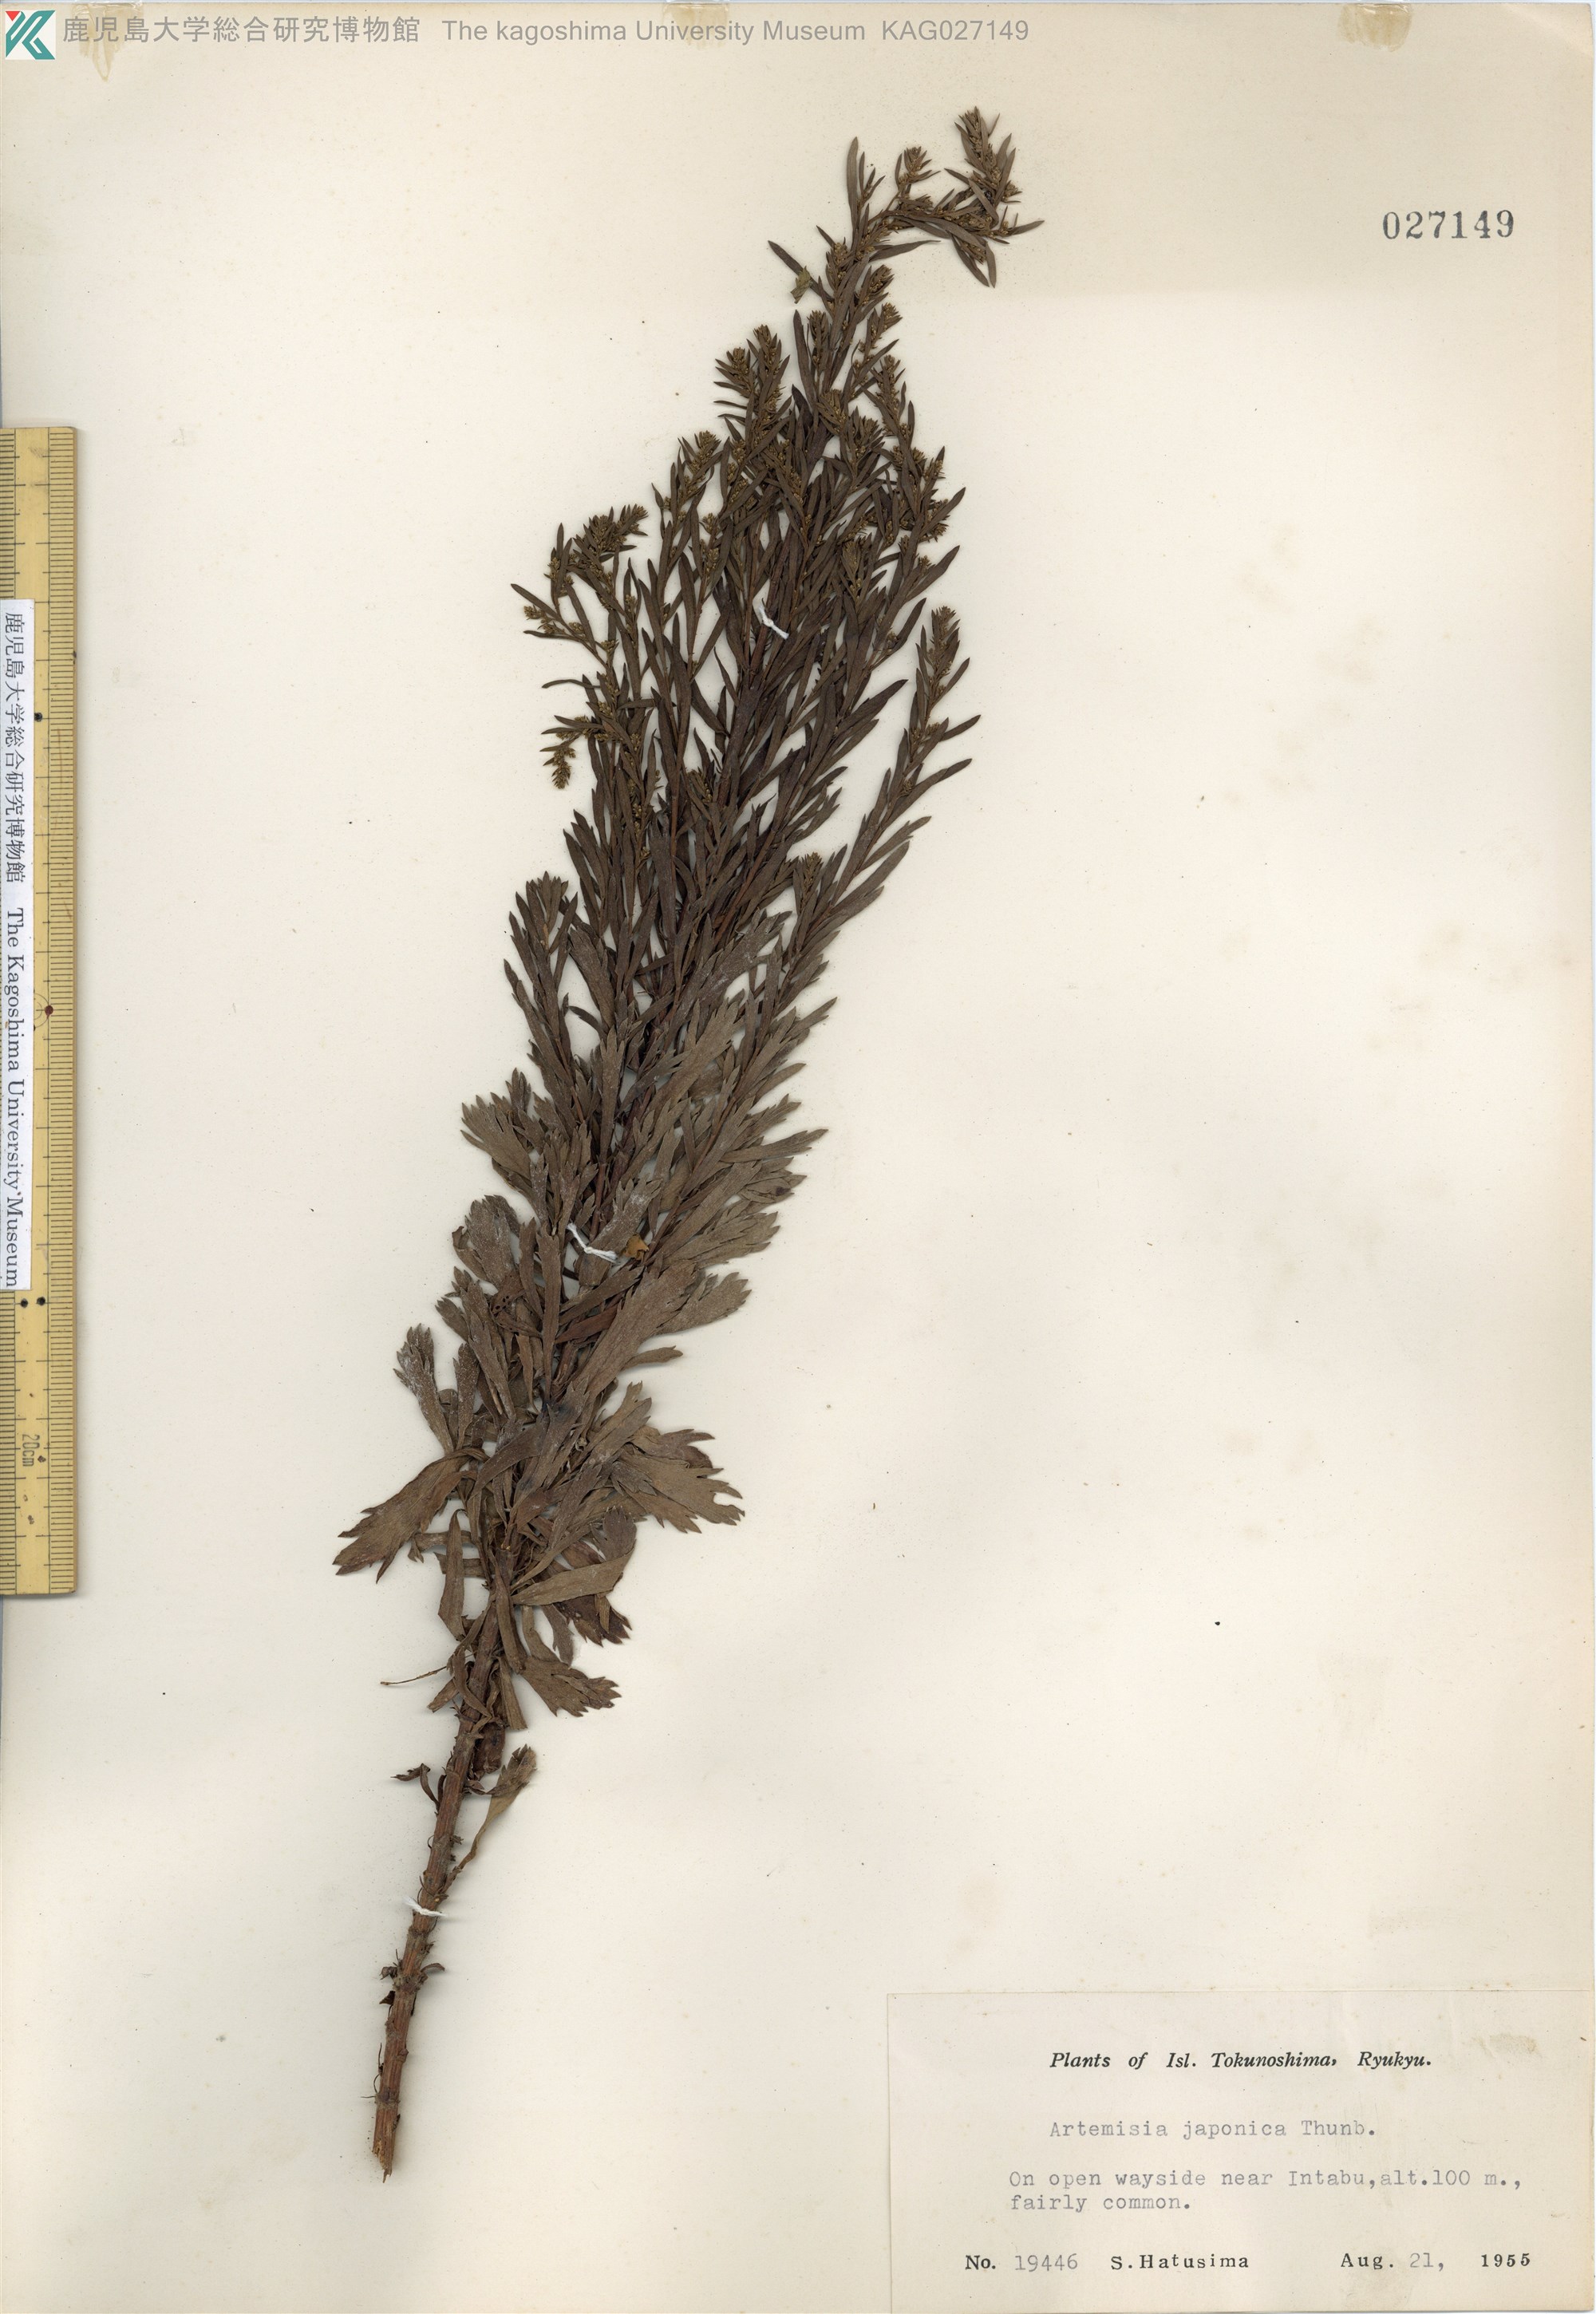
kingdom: Plantae
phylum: Tracheophyta
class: Magnoliopsida
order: Asterales
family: Asteraceae
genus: Artemisia
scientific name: Artemisia japonica
